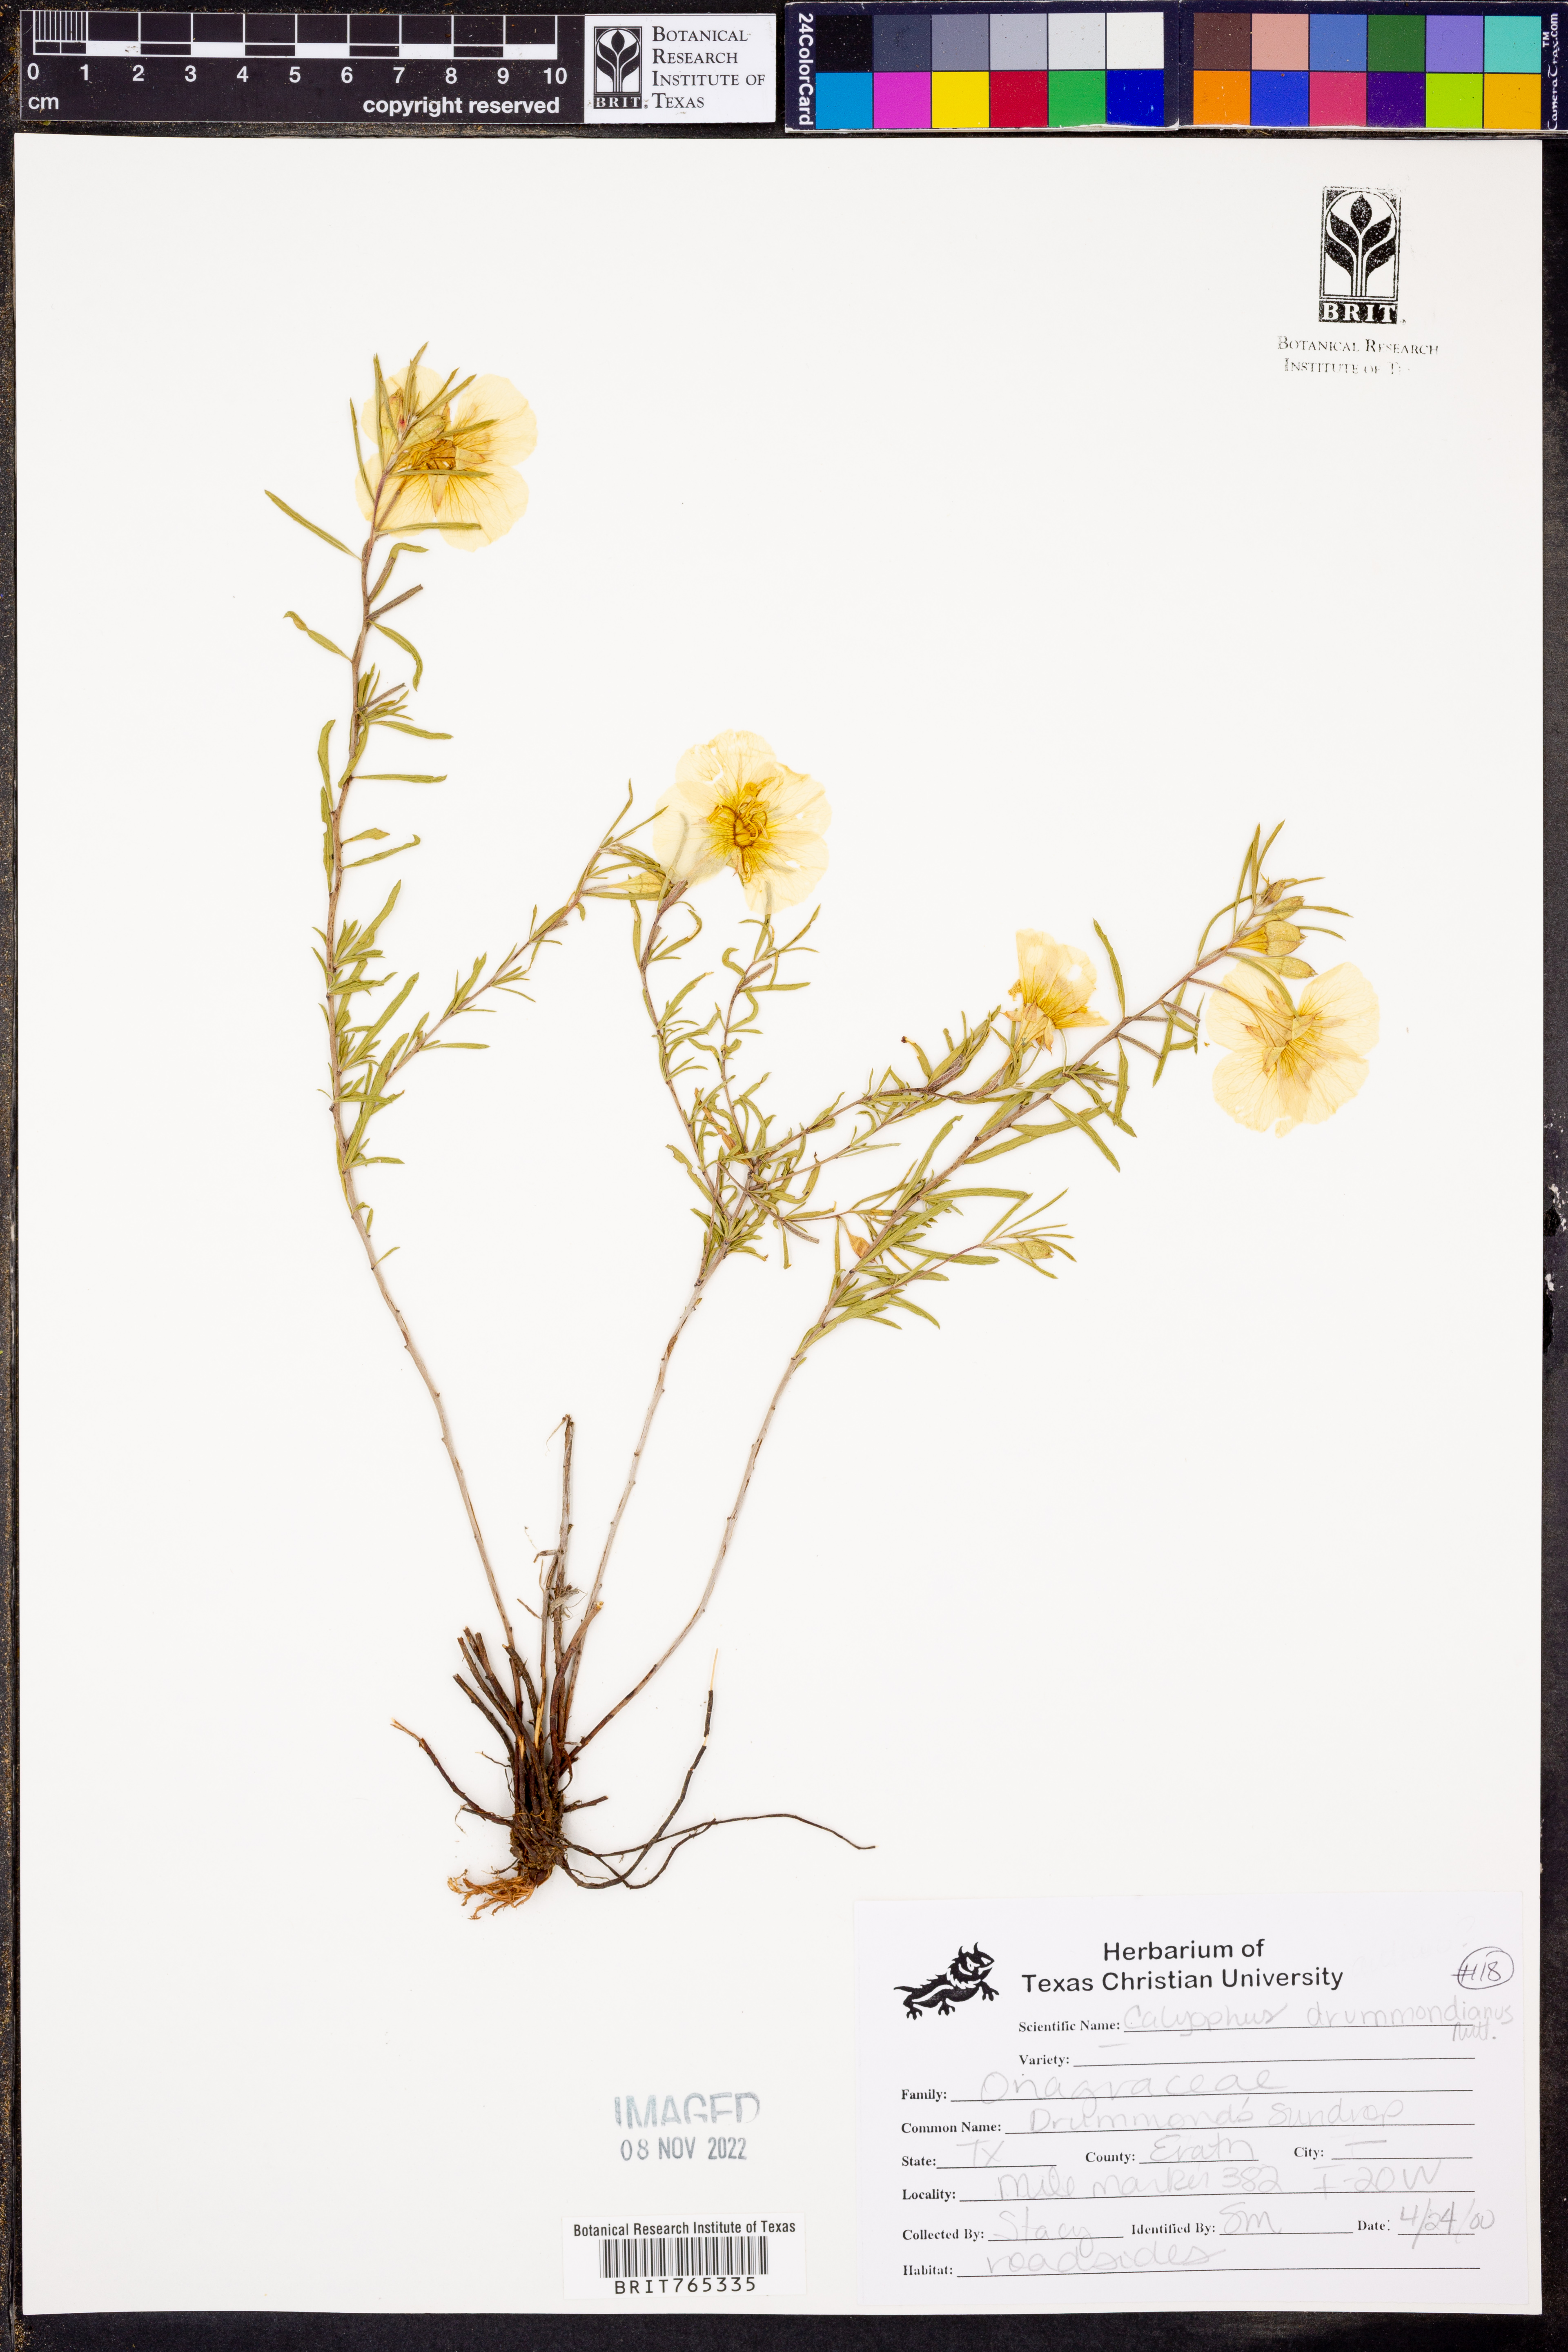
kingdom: Plantae
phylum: Tracheophyta
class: Magnoliopsida
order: Myrtales
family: Onagraceae
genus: Oenothera
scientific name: Oenothera serrulata
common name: Half-shrub calylophus
